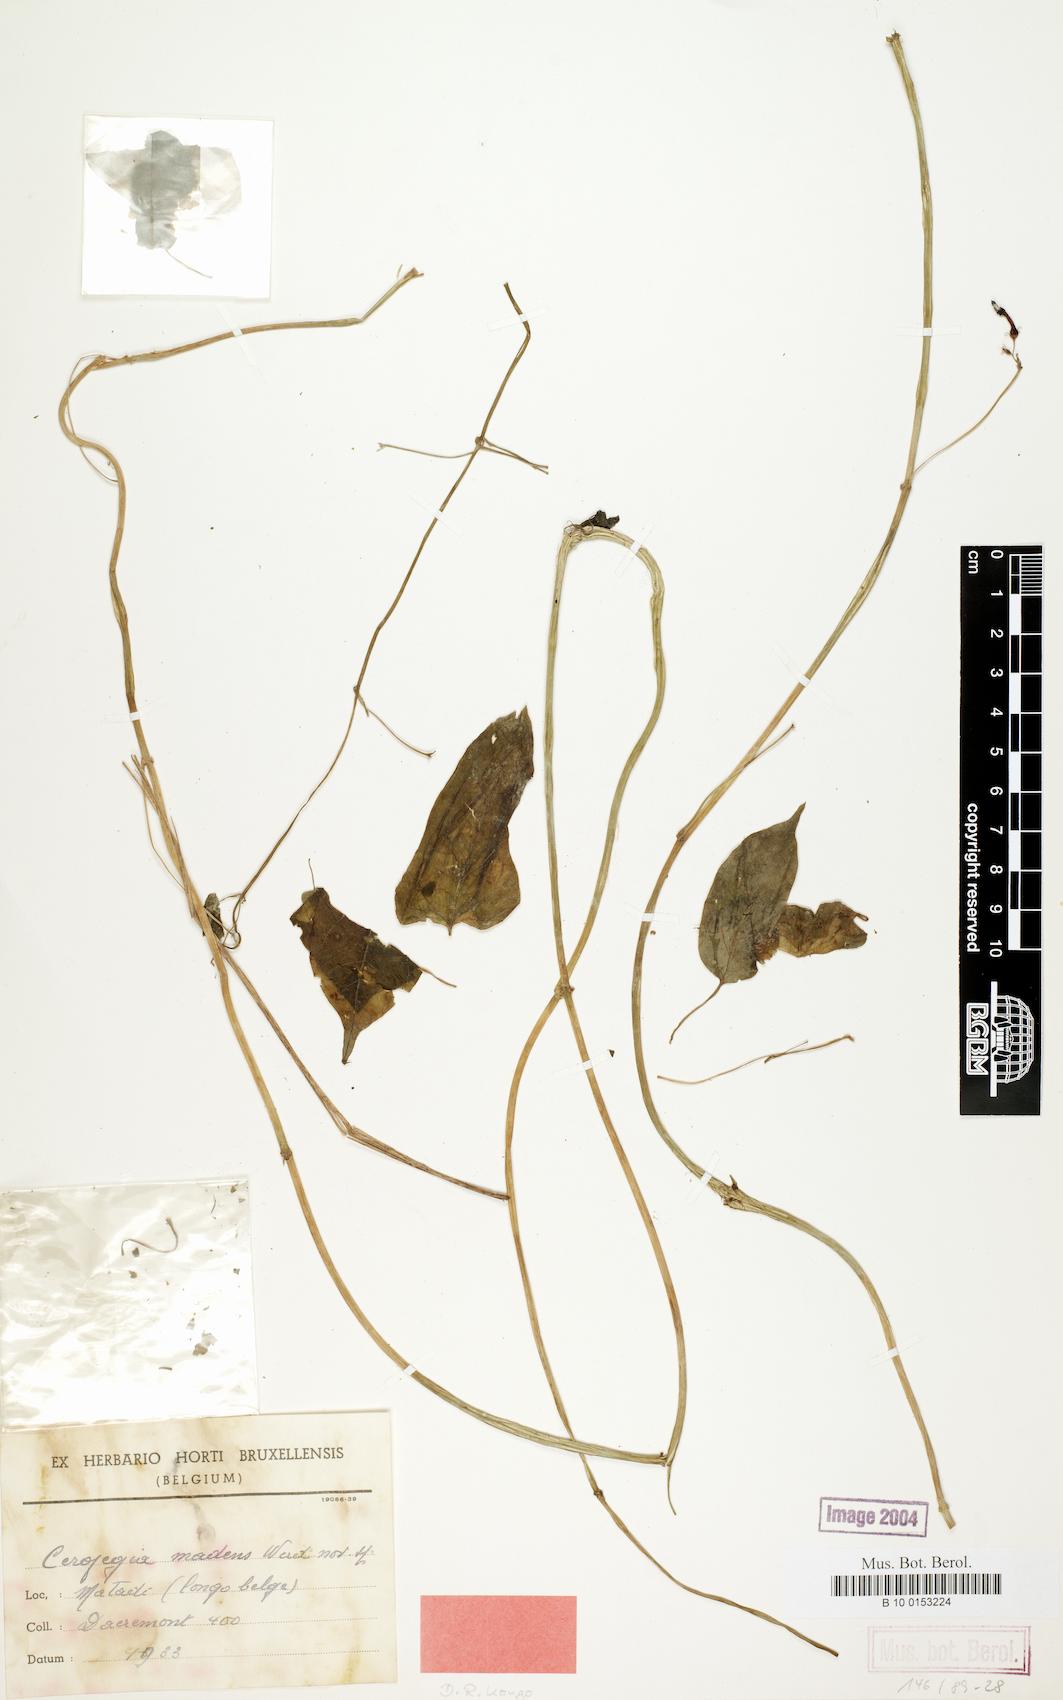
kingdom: Plantae
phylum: Tracheophyta
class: Magnoliopsida
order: Gentianales
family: Apocynaceae
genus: Ceropegia
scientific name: Ceropegia madens
